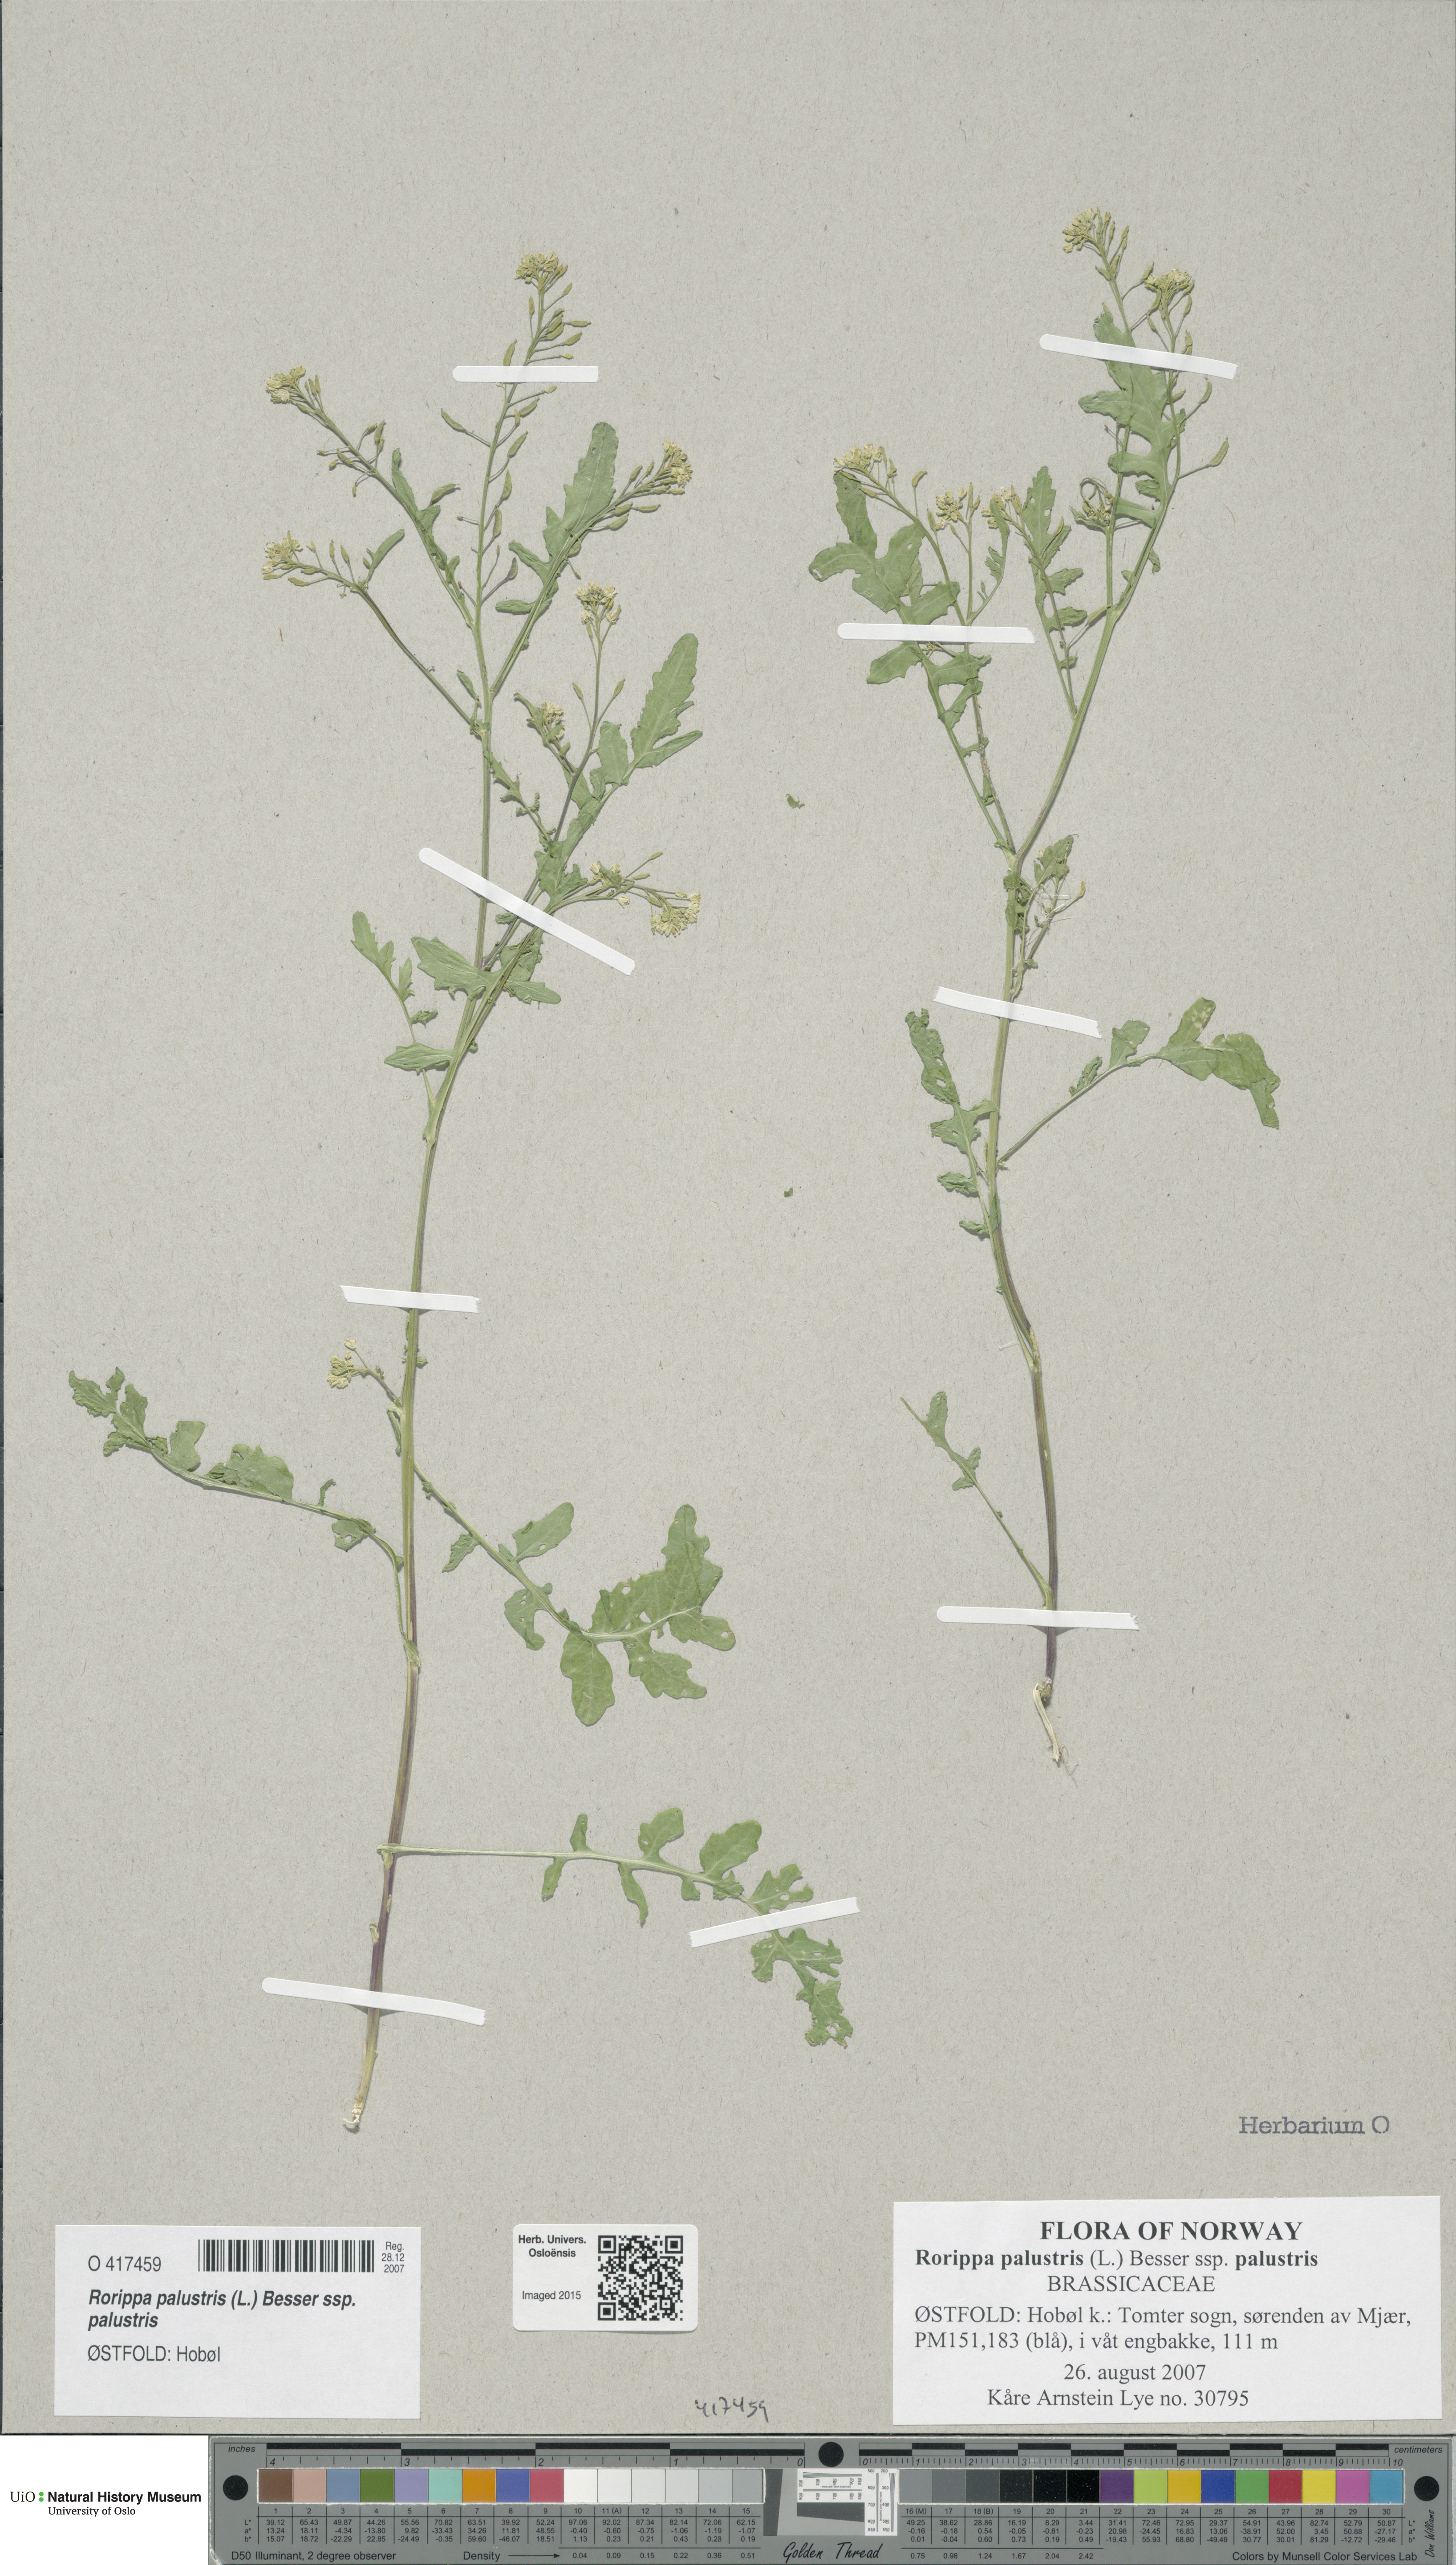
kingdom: Plantae
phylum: Tracheophyta
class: Magnoliopsida
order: Brassicales
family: Brassicaceae
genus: Rorippa
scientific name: Rorippa palustris
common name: Marsh yellow-cress
